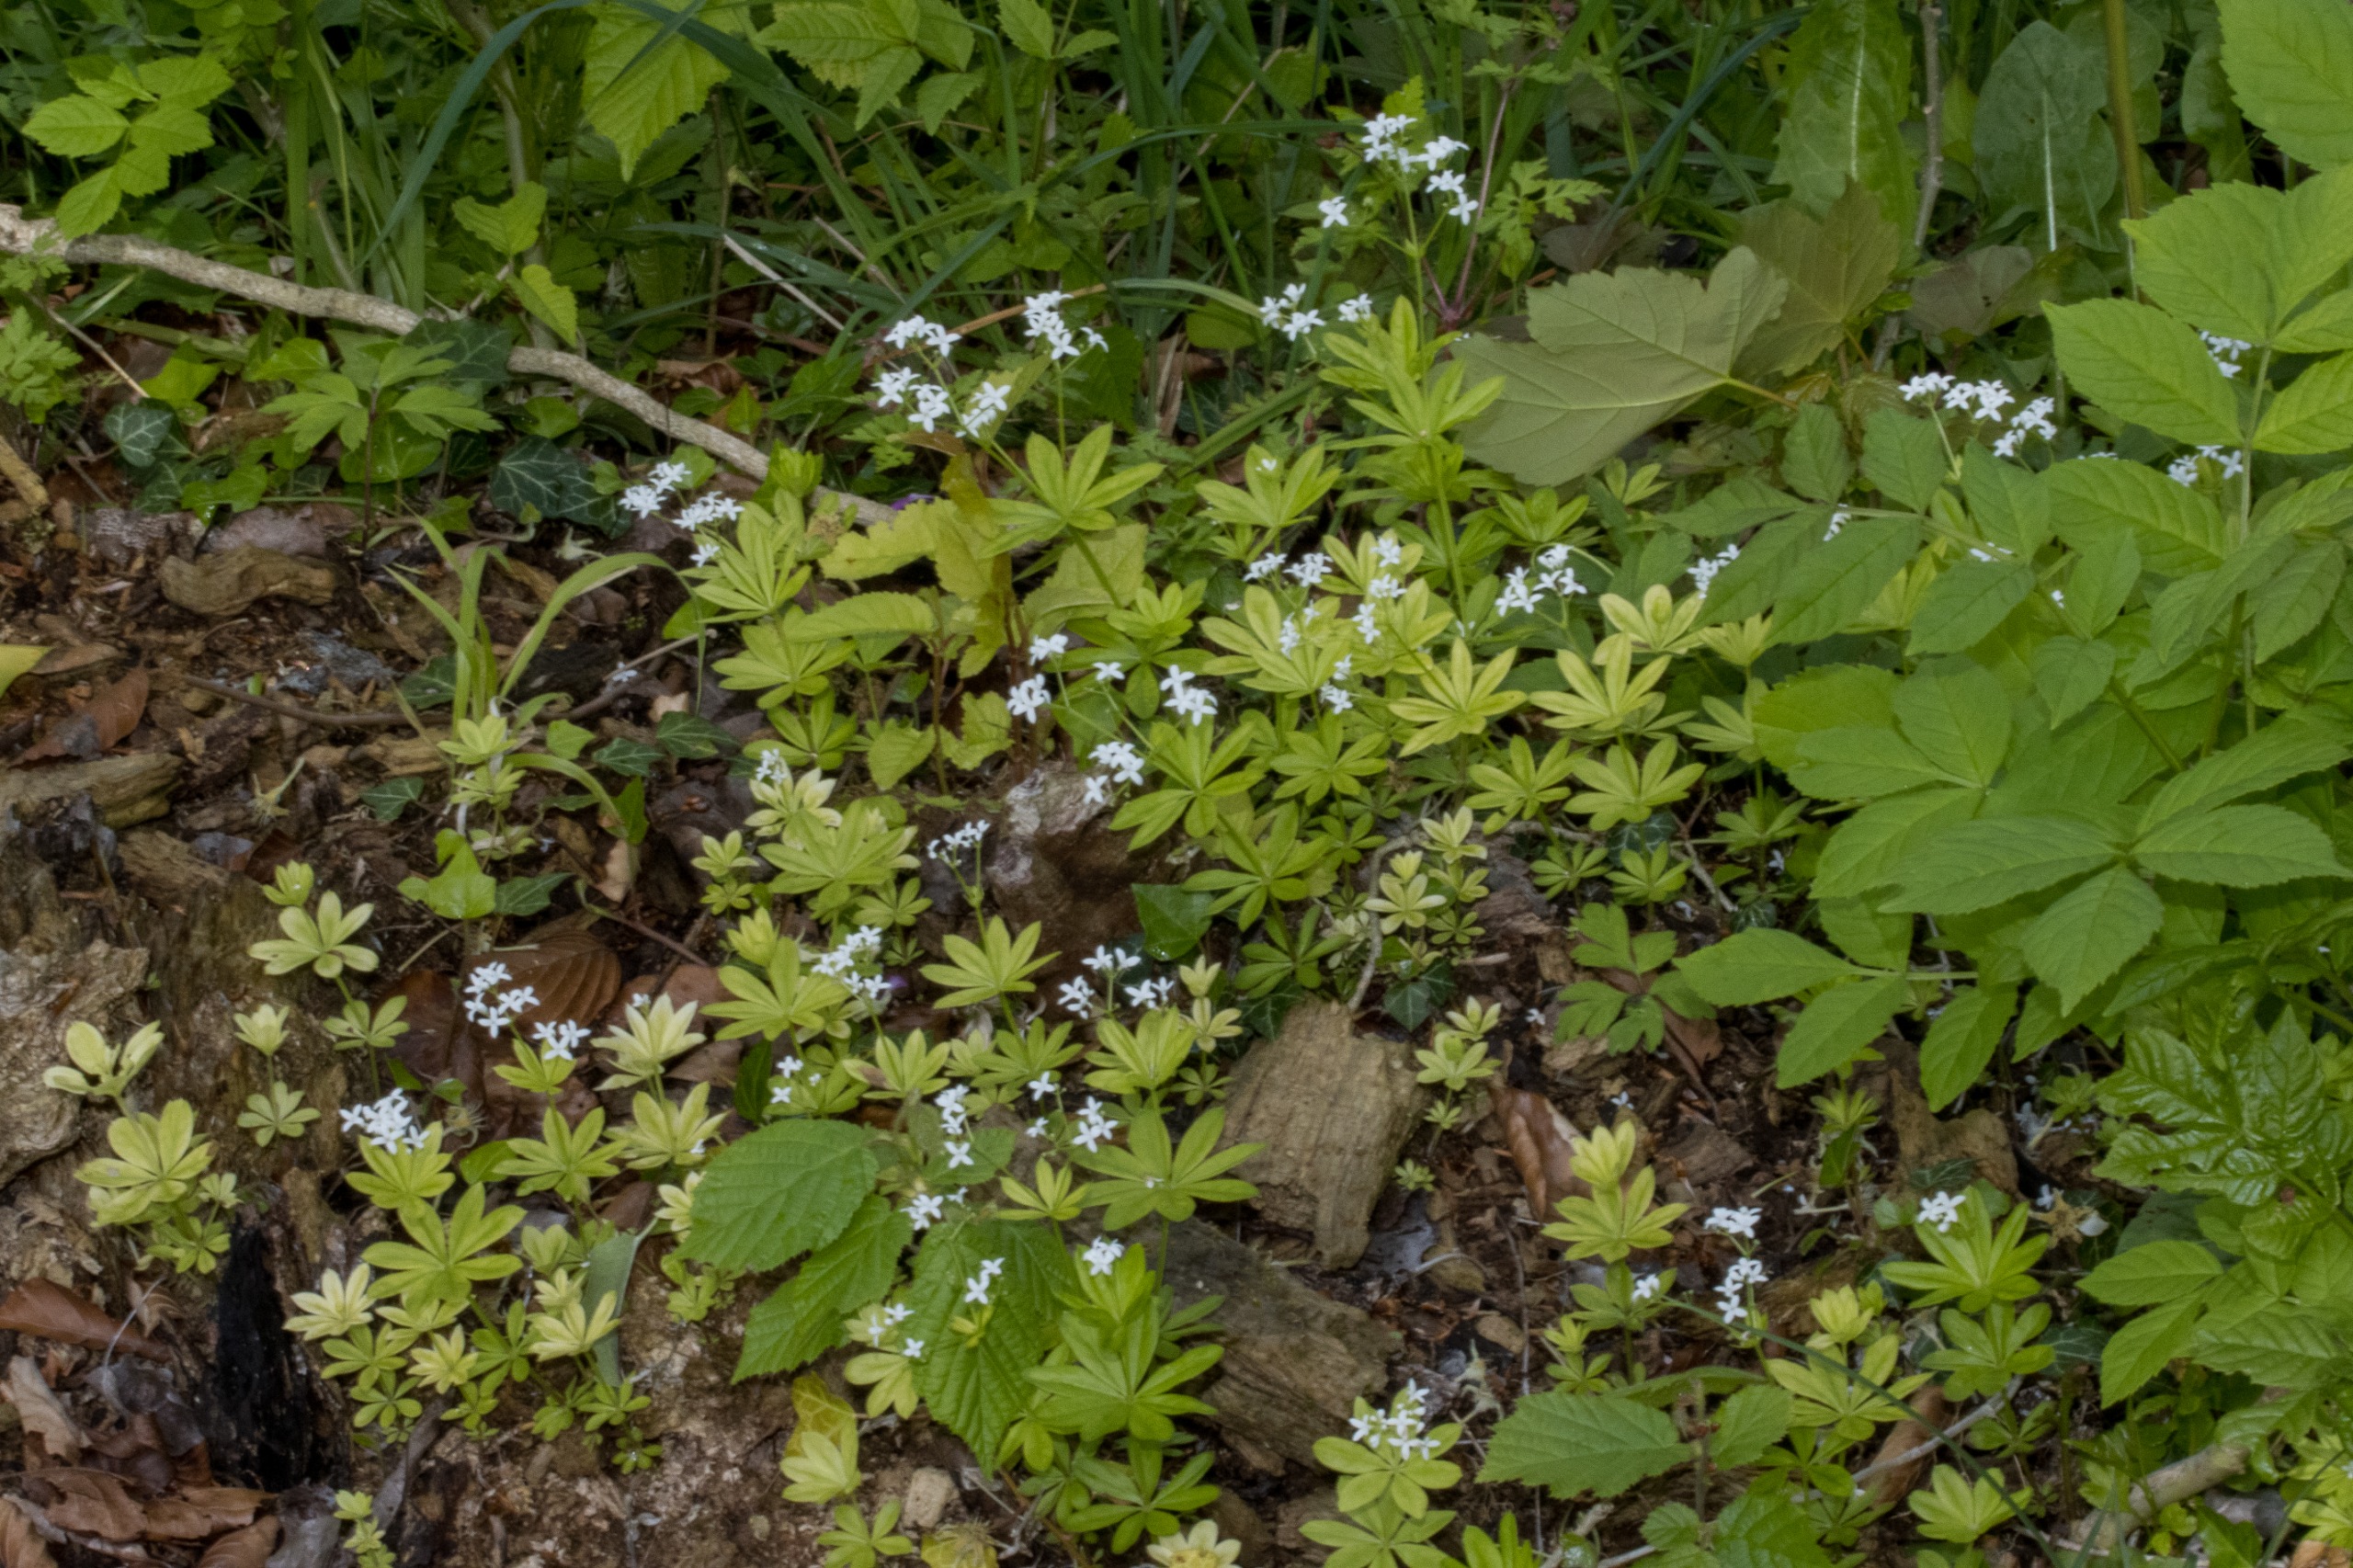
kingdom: Plantae
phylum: Tracheophyta
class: Magnoliopsida
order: Gentianales
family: Rubiaceae
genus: Galium
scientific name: Galium odoratum
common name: Skovmærke
